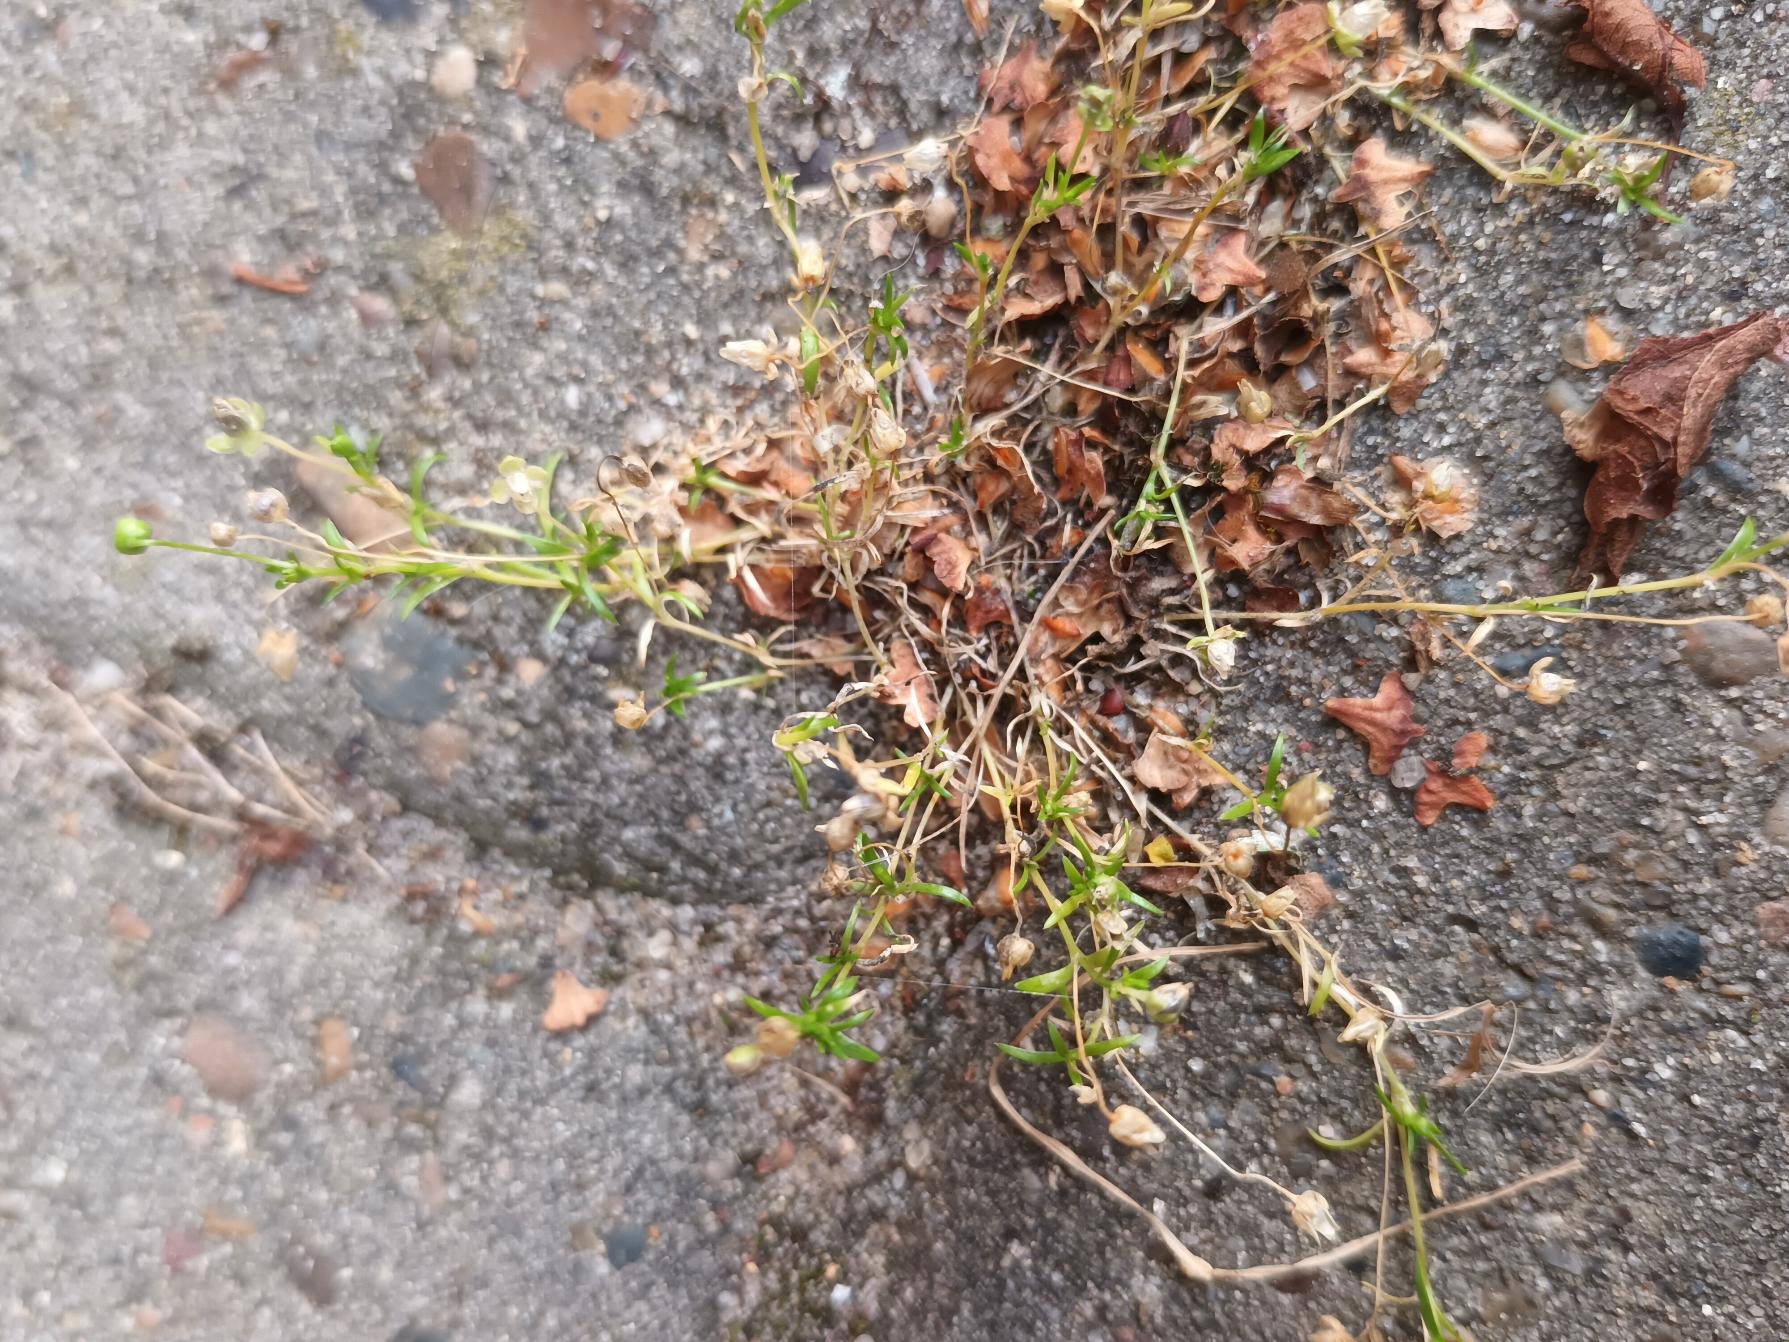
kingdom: Plantae
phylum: Tracheophyta
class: Magnoliopsida
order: Caryophyllales
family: Caryophyllaceae
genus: Sagina
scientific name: Sagina procumbens
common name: Almindelig firling
